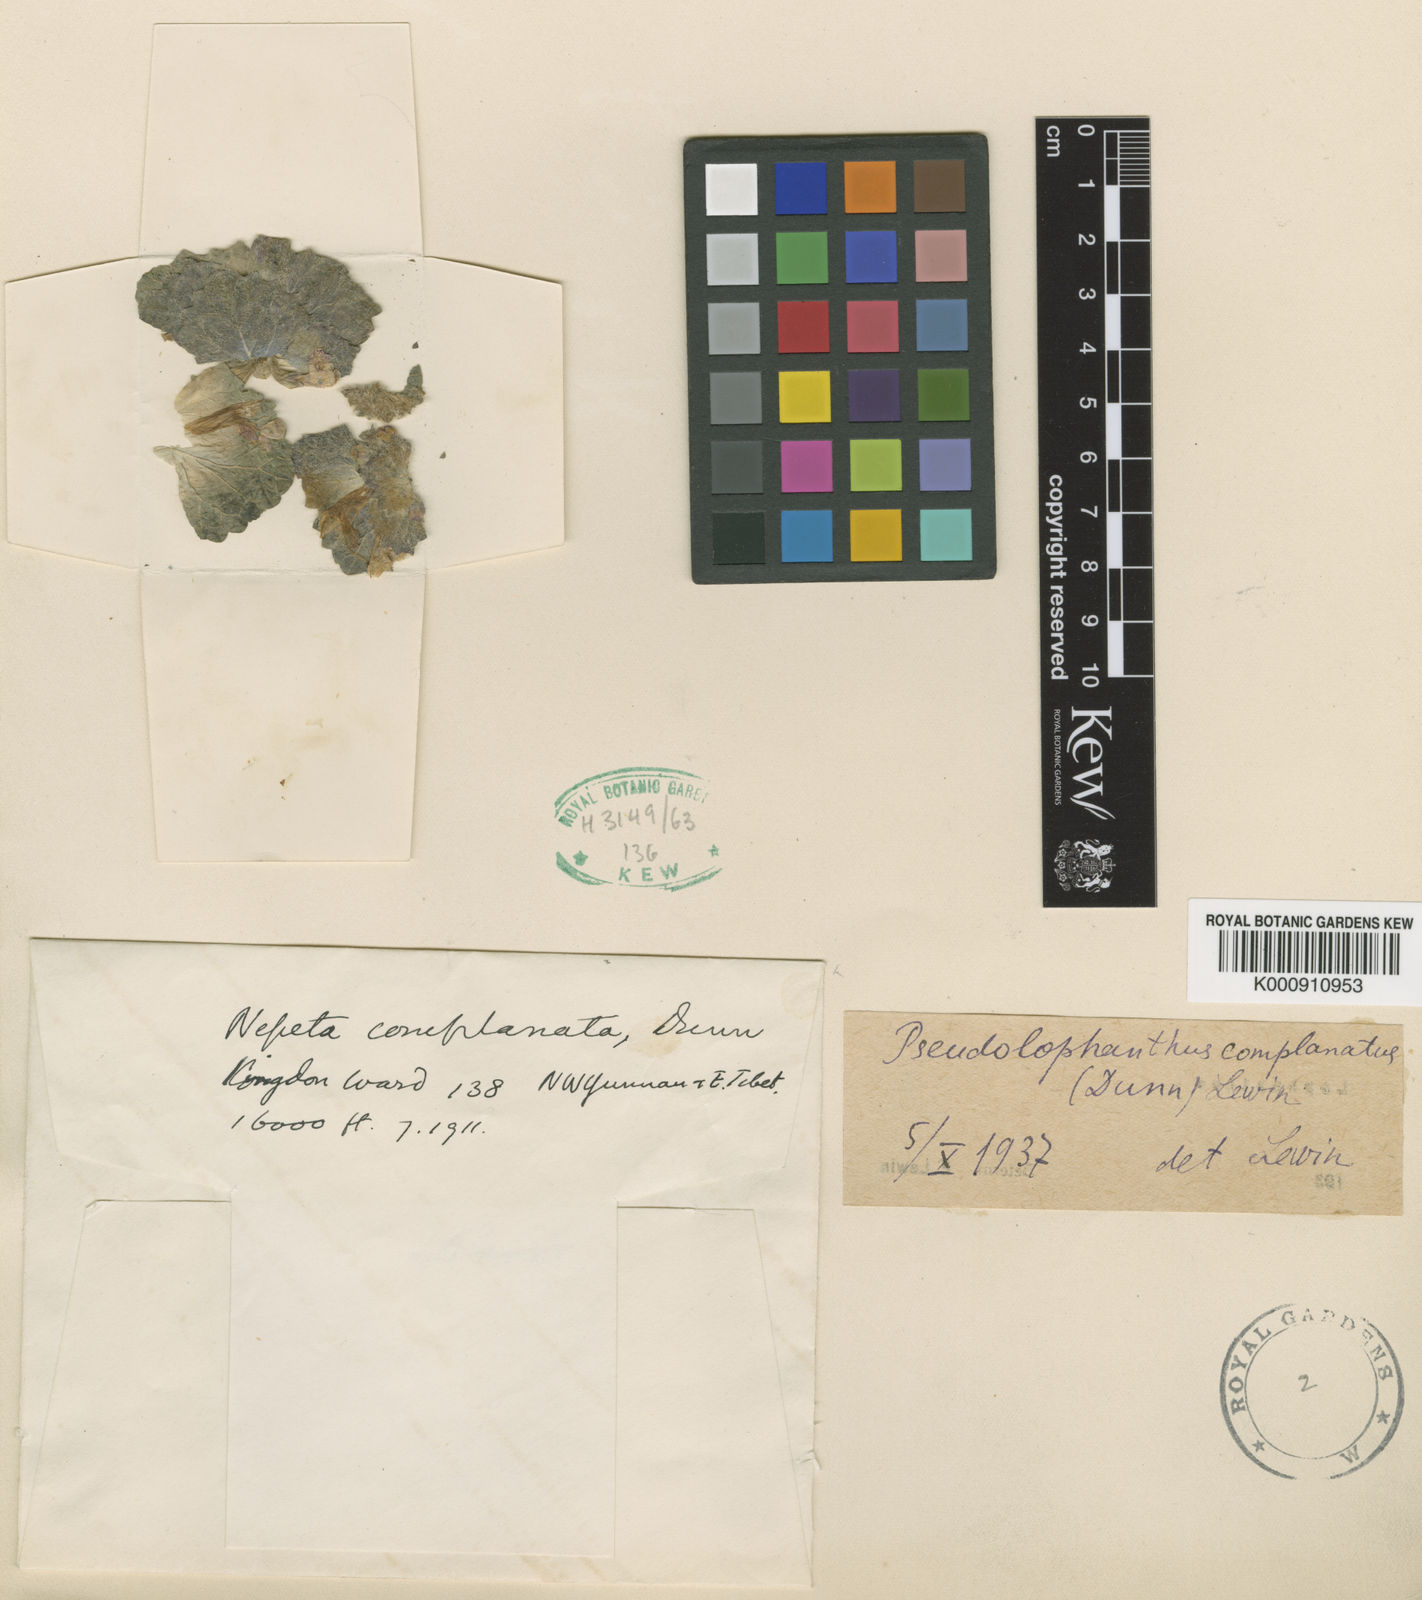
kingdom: Plantae
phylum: Tracheophyta
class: Magnoliopsida
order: Lamiales
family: Lamiaceae
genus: Nepeta
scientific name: Nepeta complanata
